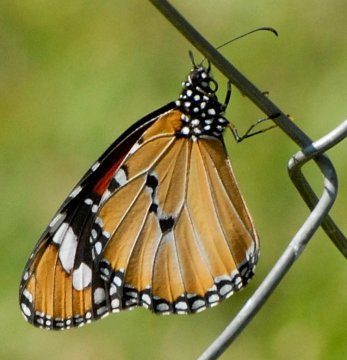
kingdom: Animalia
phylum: Arthropoda
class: Insecta
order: Lepidoptera
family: Nymphalidae
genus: Danaus
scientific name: Danaus chrysippus
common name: African Monarch
